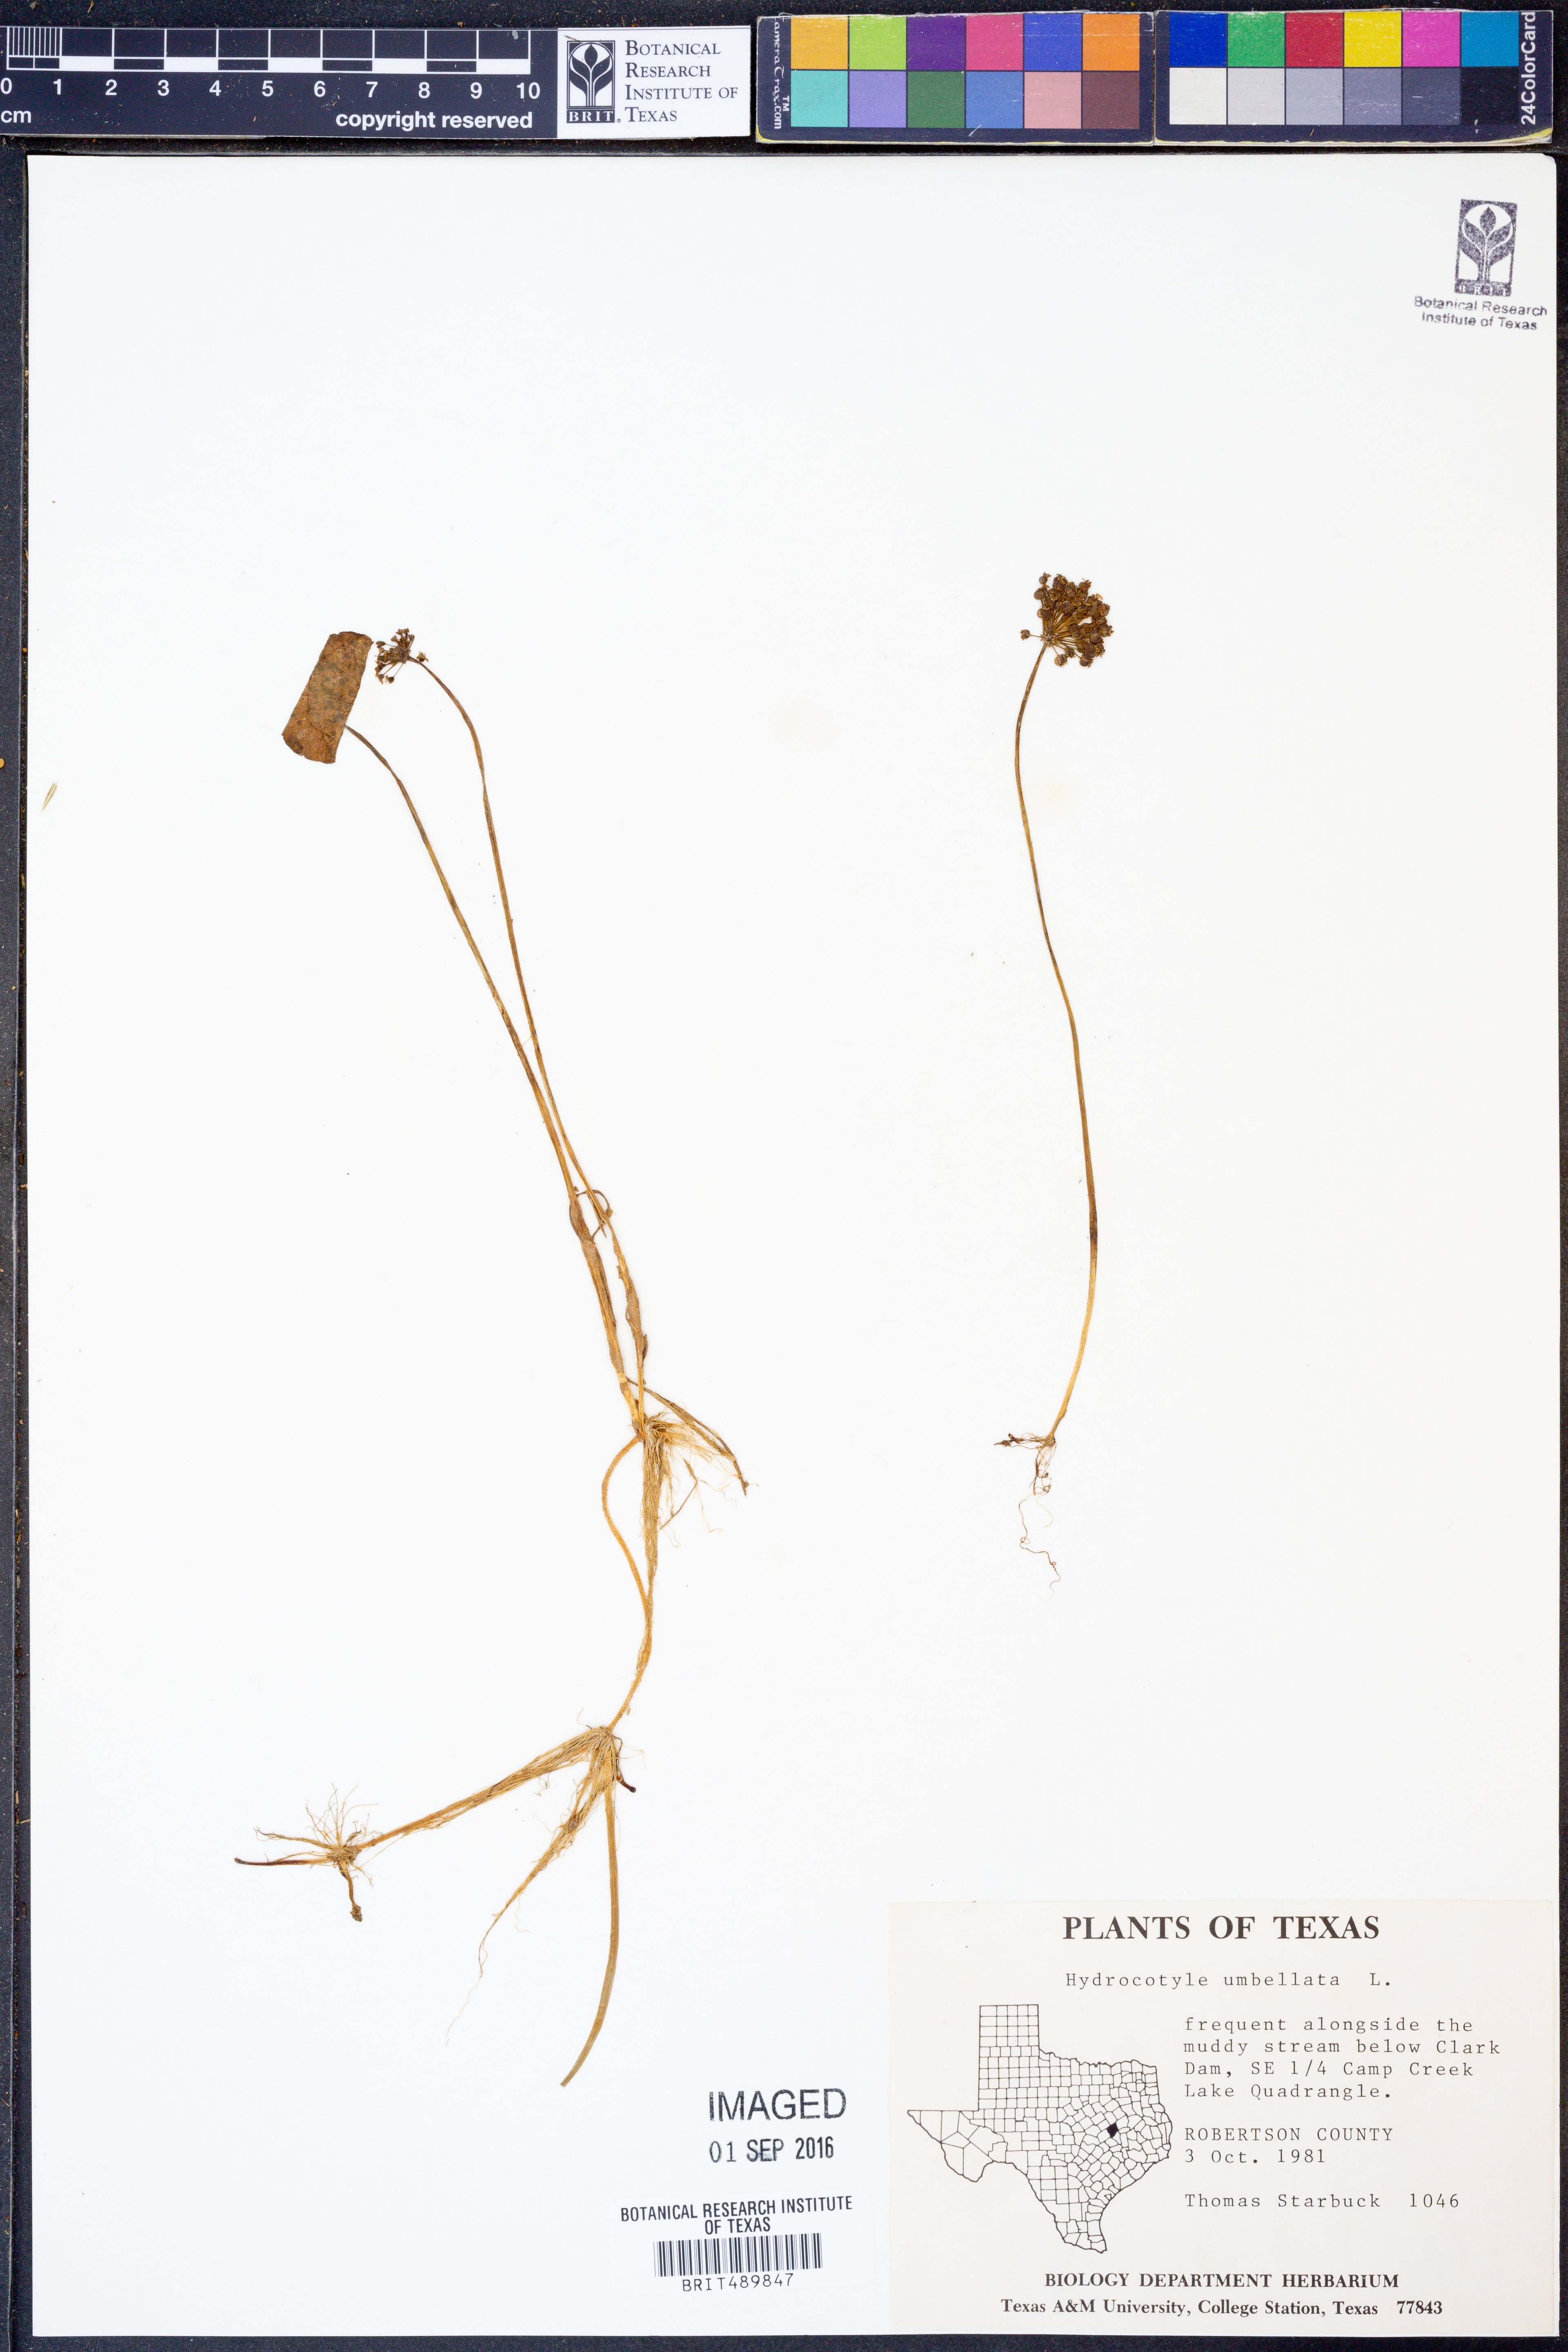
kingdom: Plantae
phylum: Tracheophyta
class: Magnoliopsida
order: Apiales
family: Araliaceae
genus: Hydrocotyle
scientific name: Hydrocotyle umbellata
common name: Water pennywort
